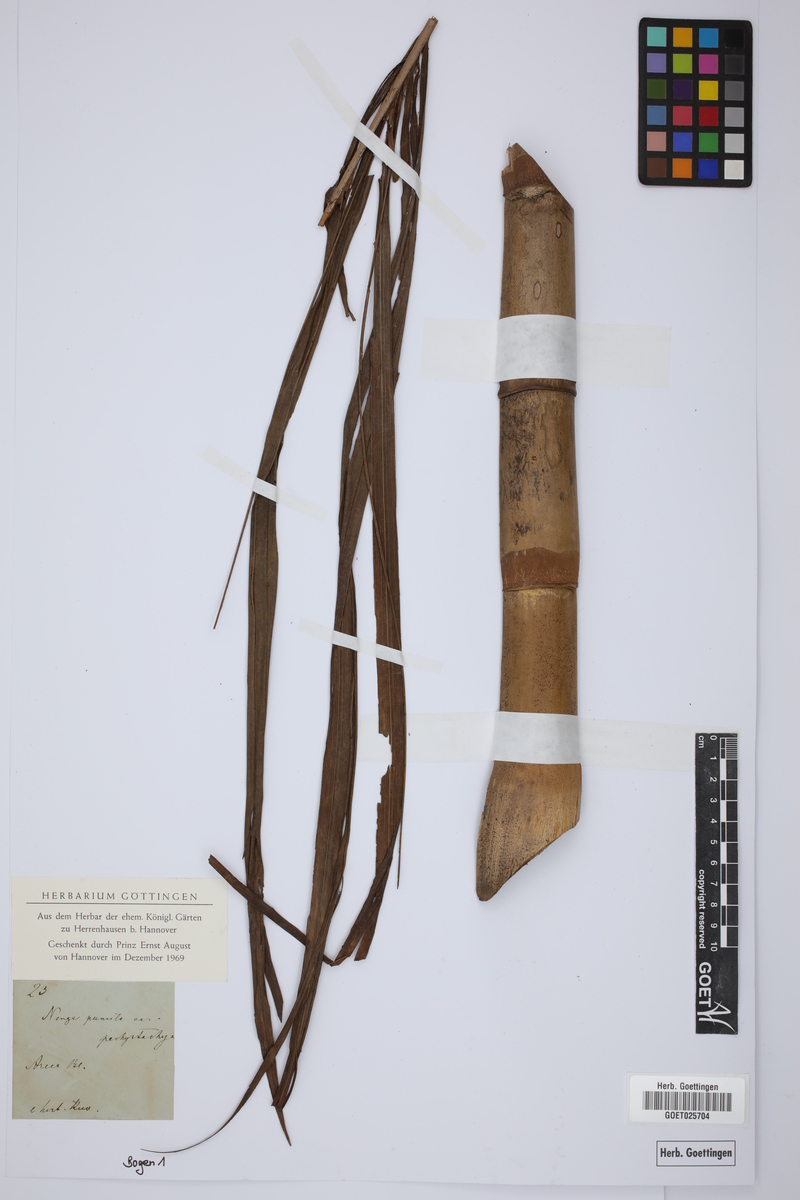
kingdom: Plantae
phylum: Tracheophyta
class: Liliopsida
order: Arecales
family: Arecaceae
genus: Nenga
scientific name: Nenga pumila
